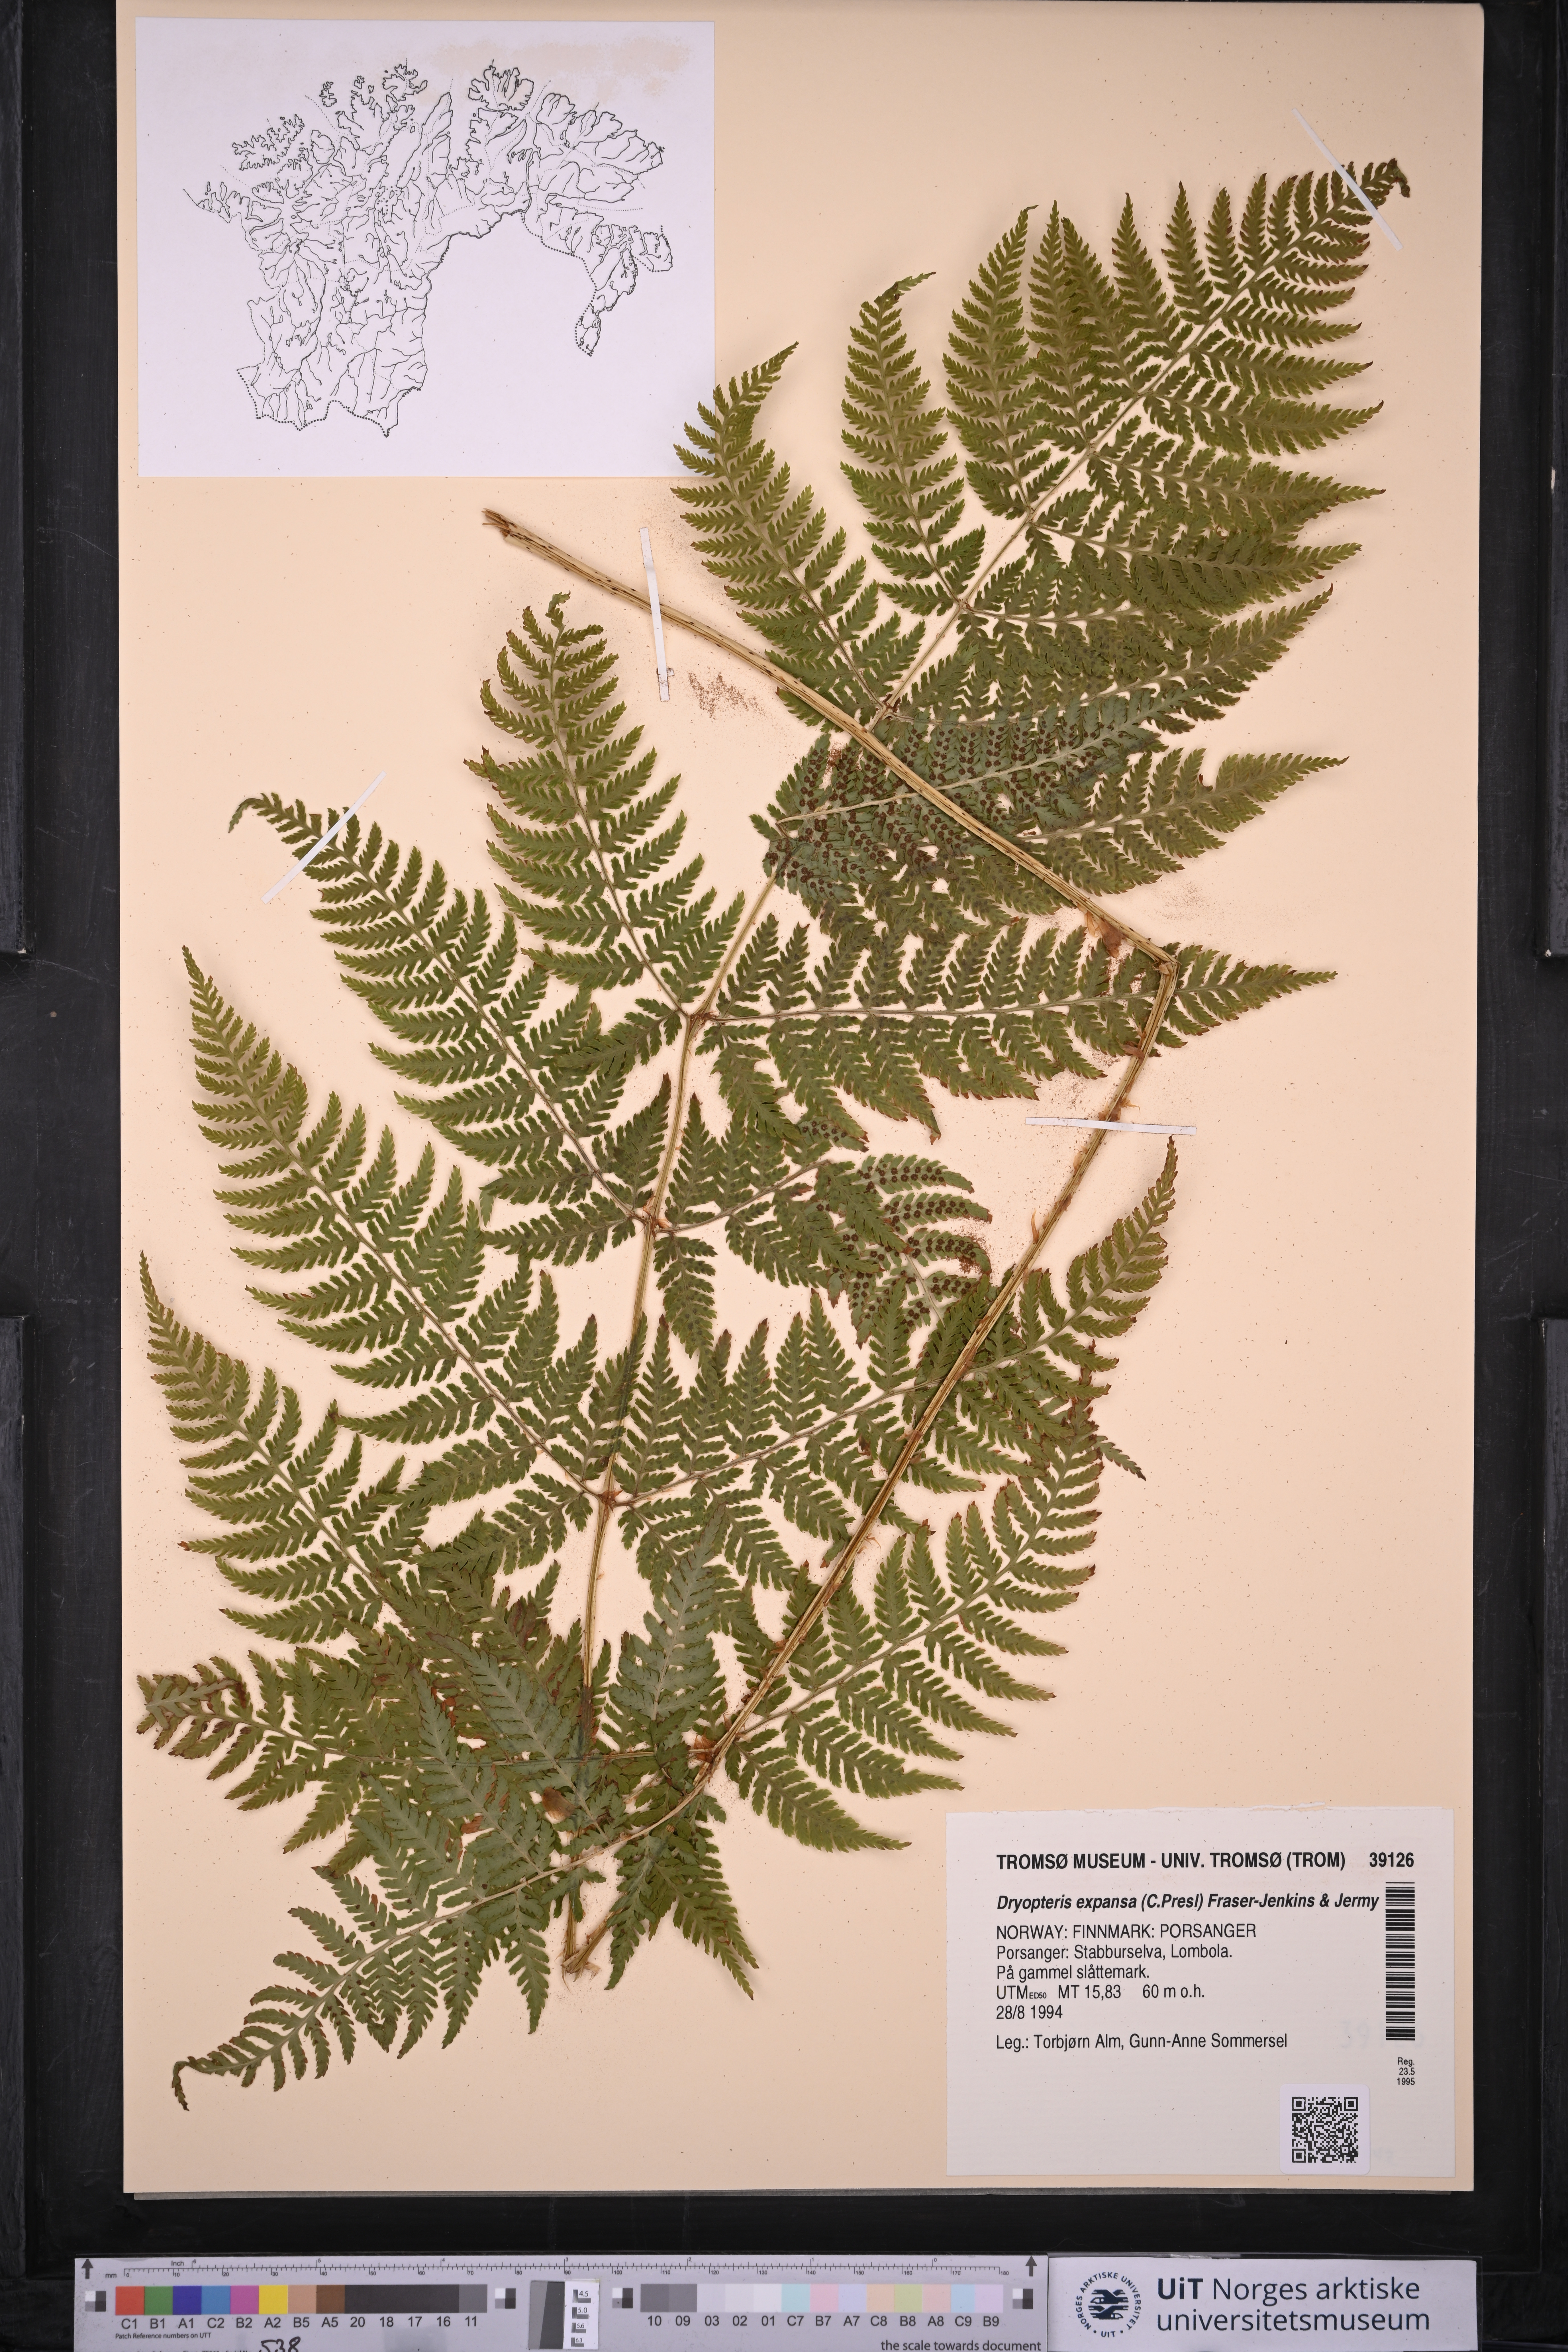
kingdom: Plantae
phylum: Tracheophyta
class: Polypodiopsida
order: Polypodiales
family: Dryopteridaceae
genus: Dryopteris
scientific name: Dryopteris expansa
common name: Northern buckler fern
